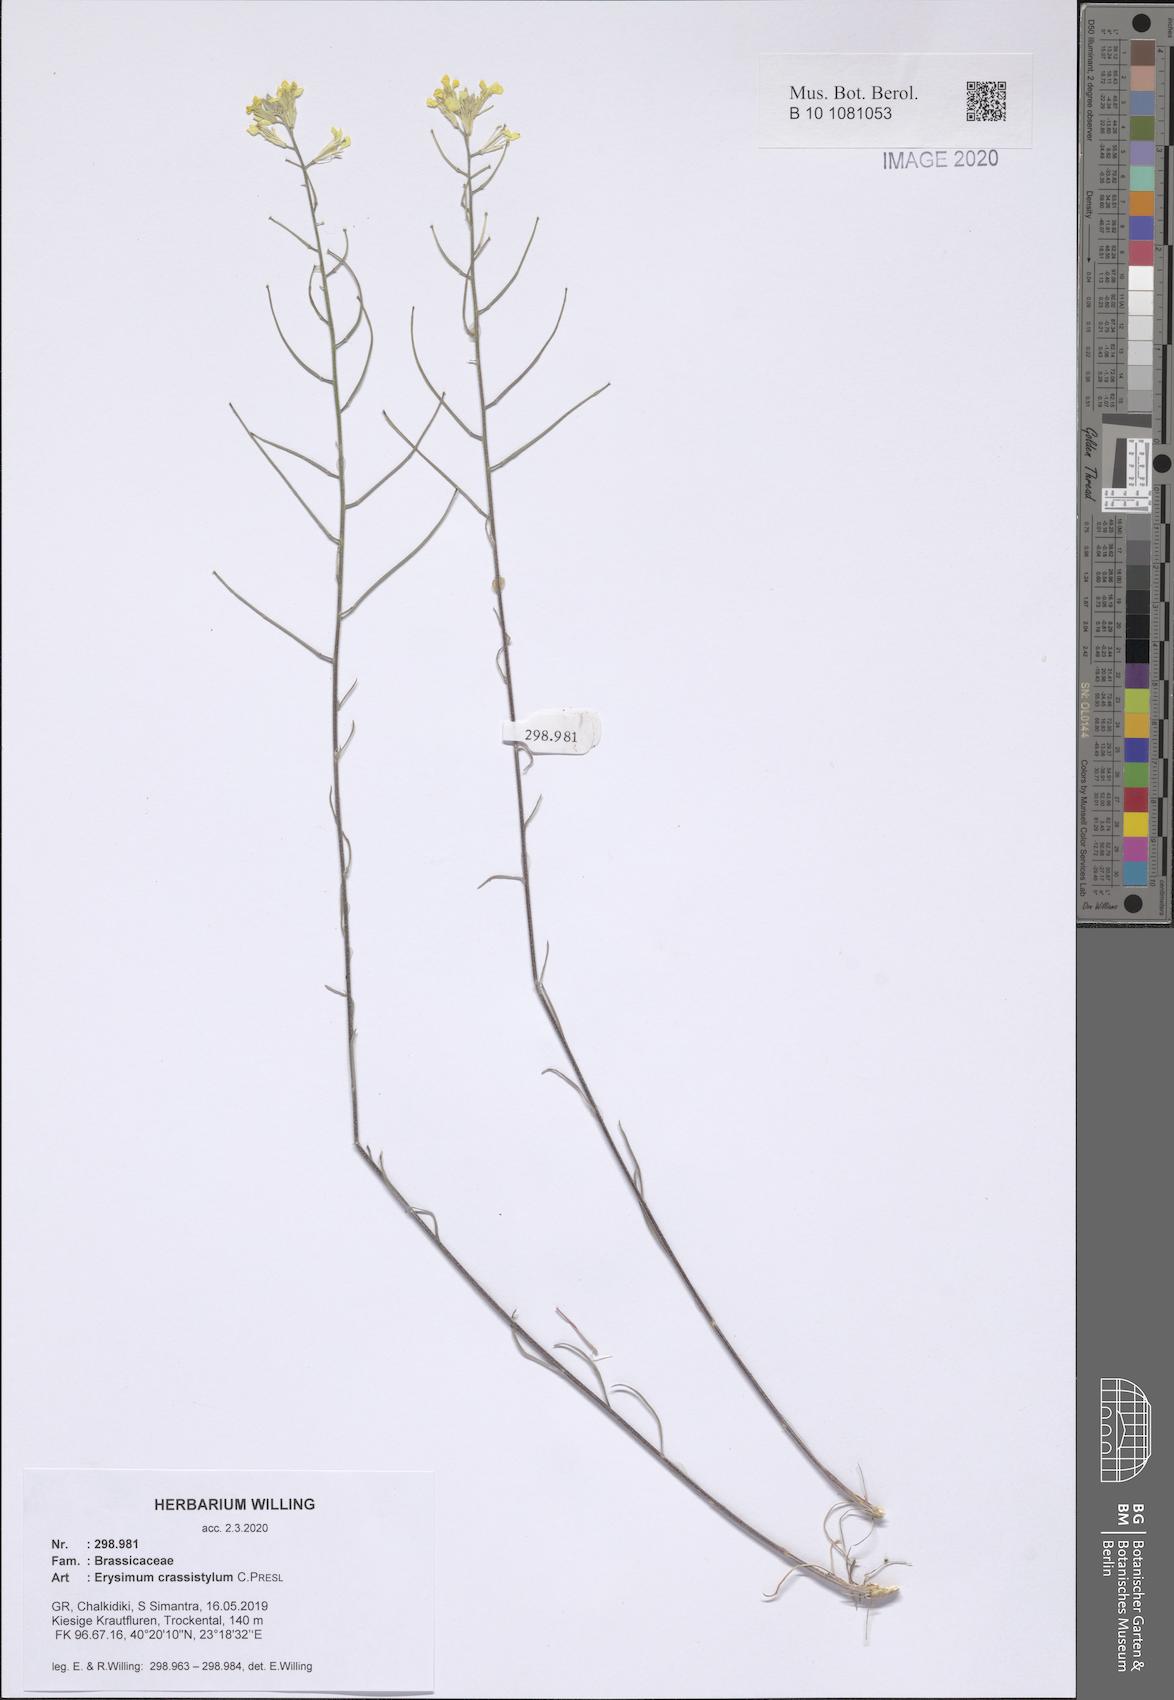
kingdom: Plantae
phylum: Tracheophyta
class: Magnoliopsida
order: Brassicales
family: Brassicaceae
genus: Erysimum
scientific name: Erysimum crassistylum
